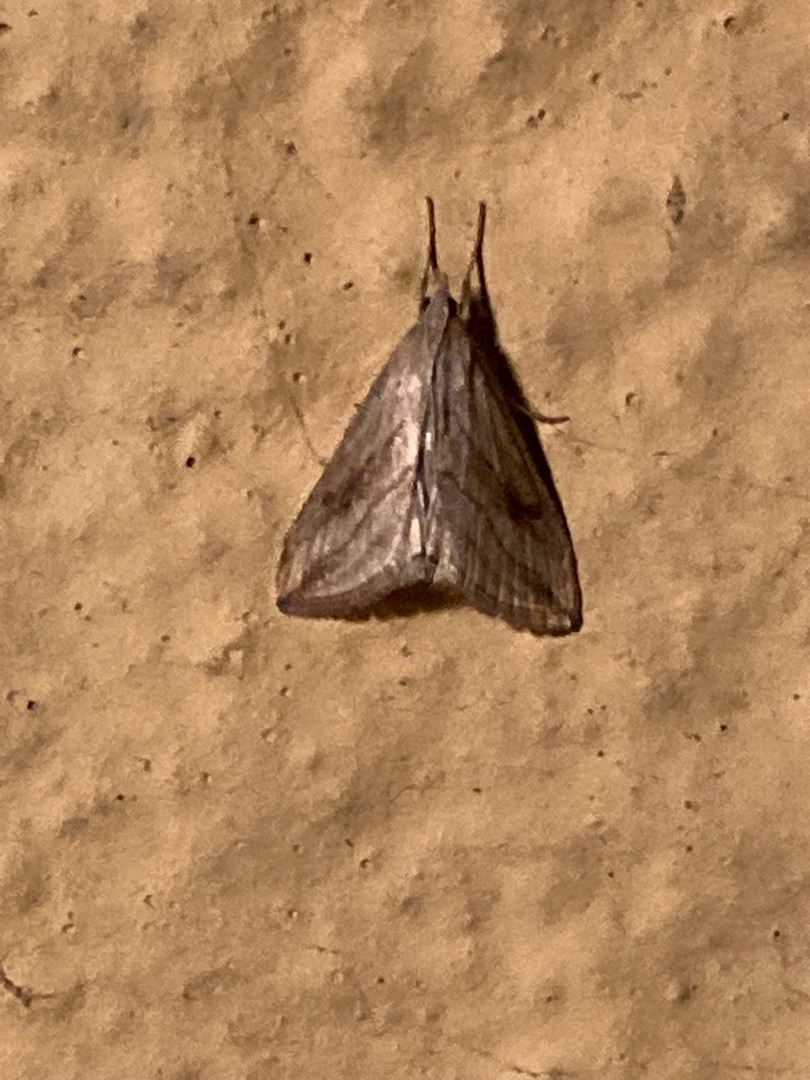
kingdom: Animalia
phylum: Arthropoda
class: Insecta
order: Lepidoptera
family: Crambidae
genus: Evergestis
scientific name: Evergestis forficalis
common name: Kålhalvmøl
